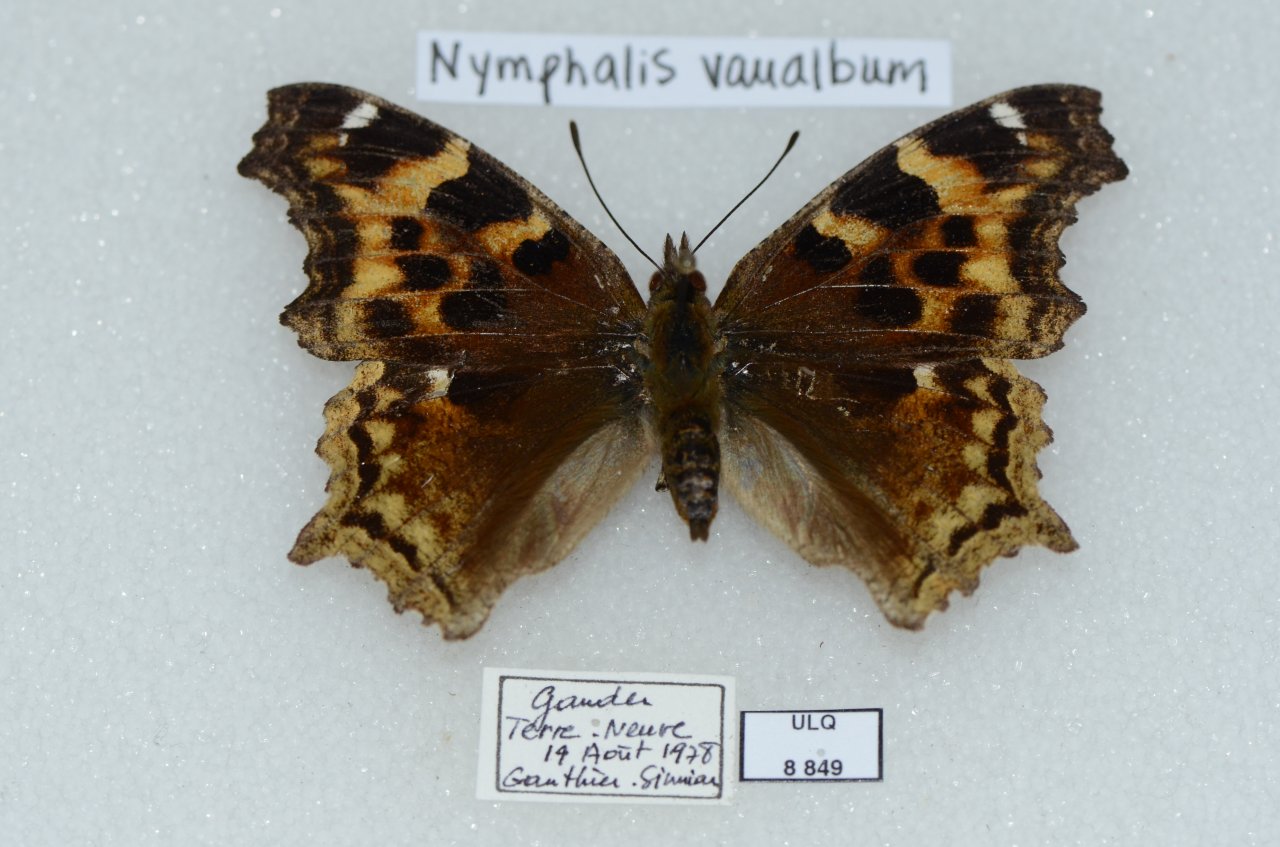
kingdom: Animalia
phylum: Arthropoda
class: Insecta
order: Lepidoptera
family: Nymphalidae
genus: Polygonia
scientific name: Polygonia vaualbum
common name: Compton Tortoiseshell
